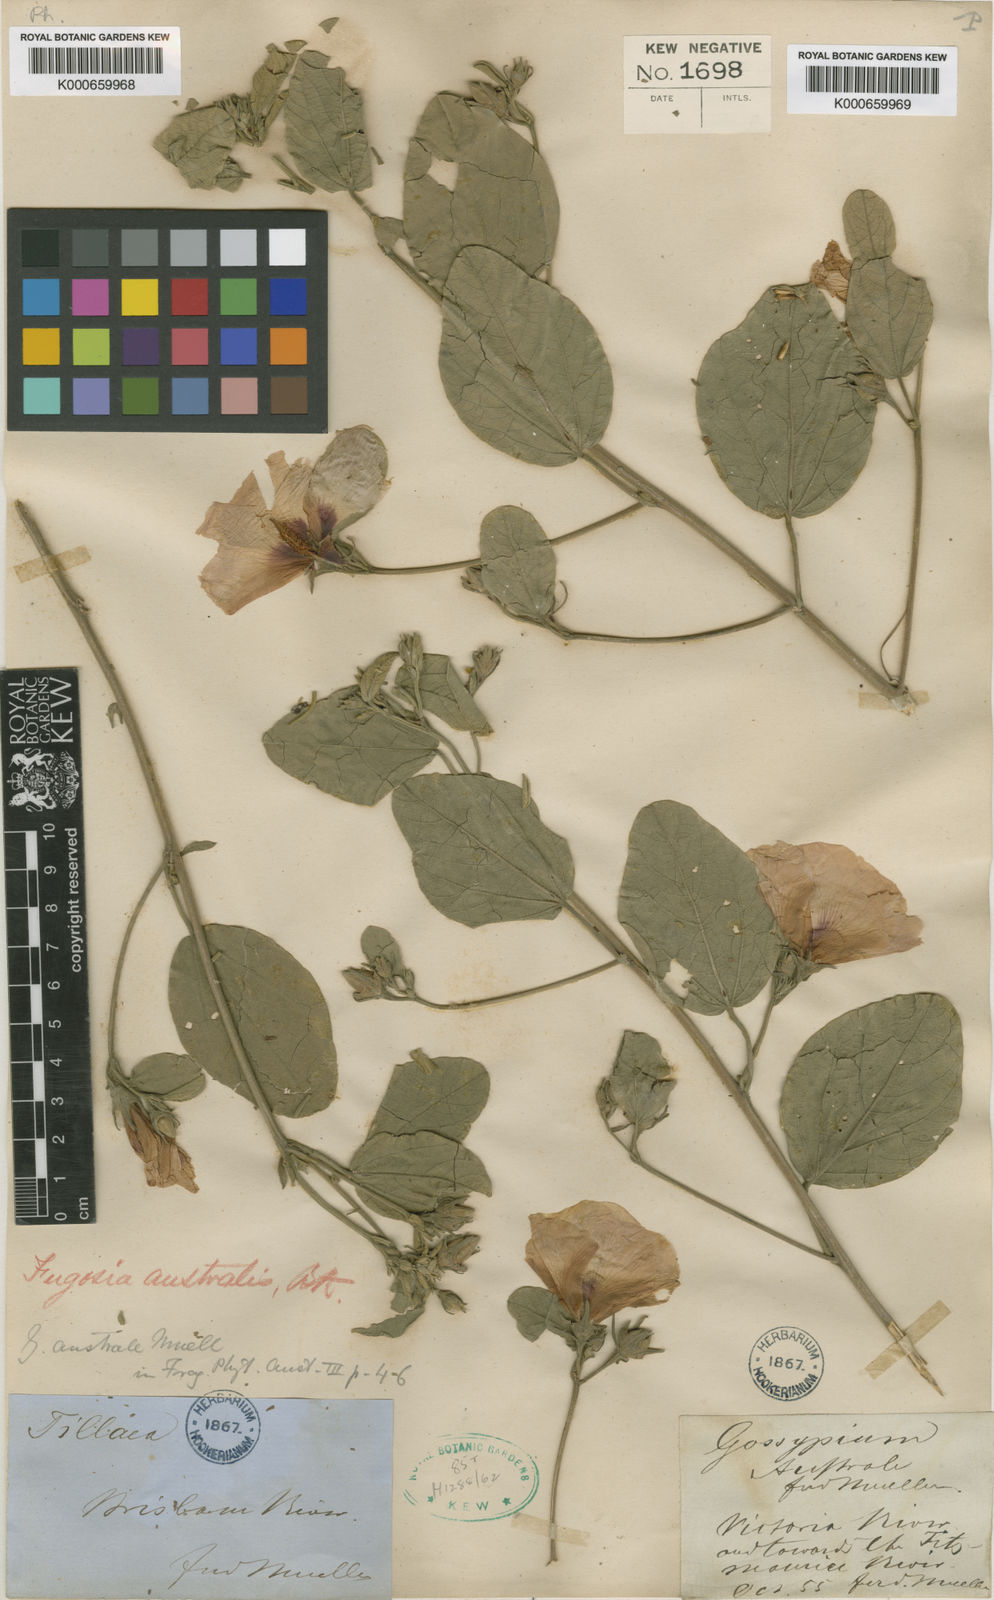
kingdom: Plantae
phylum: Tracheophyta
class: Magnoliopsida
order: Malvales
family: Malvaceae
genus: Cienfuegosia
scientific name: Cienfuegosia australis
